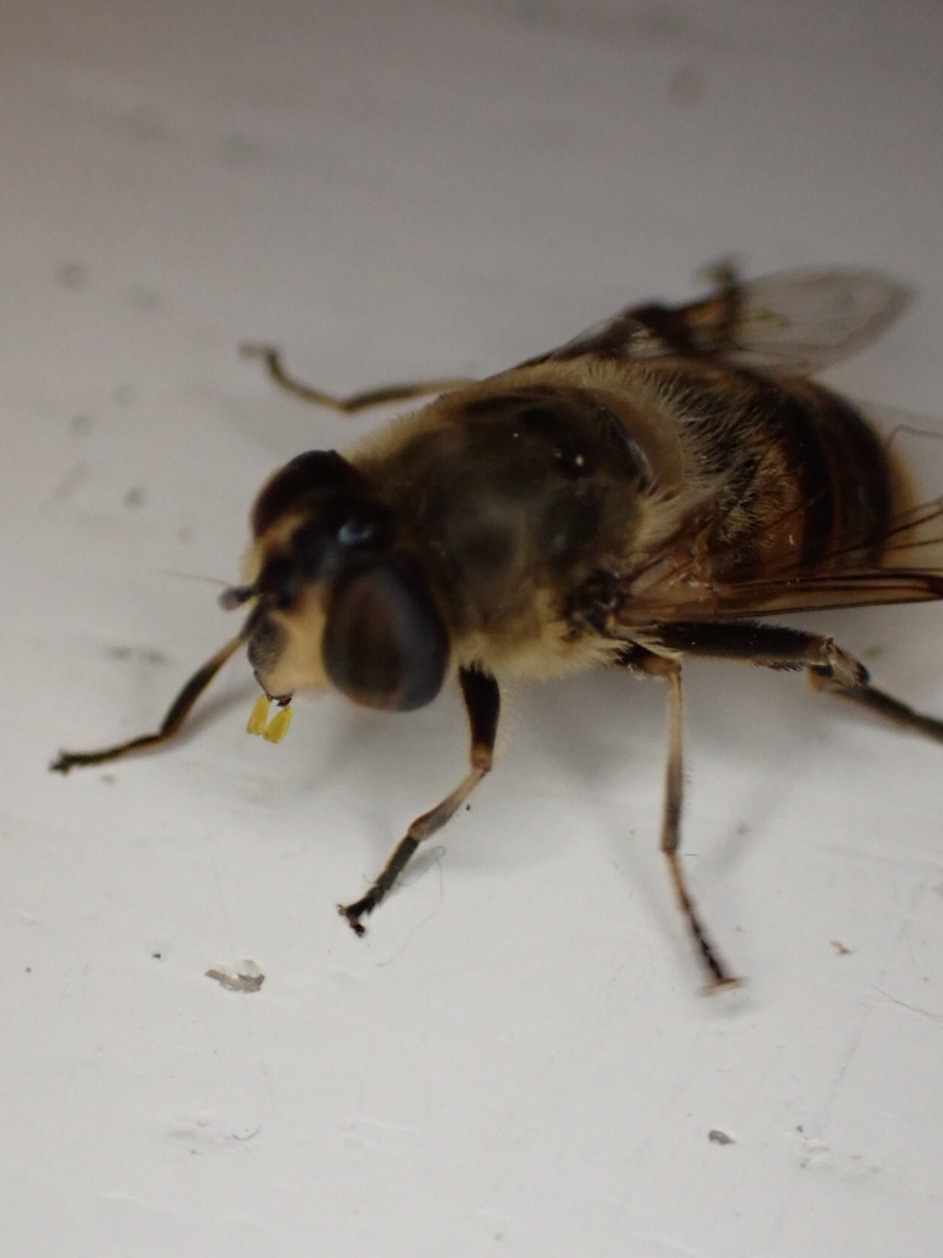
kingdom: Animalia
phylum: Arthropoda
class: Insecta
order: Diptera
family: Syrphidae
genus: Eristalis
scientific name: Eristalis tenax
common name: Droneflue
